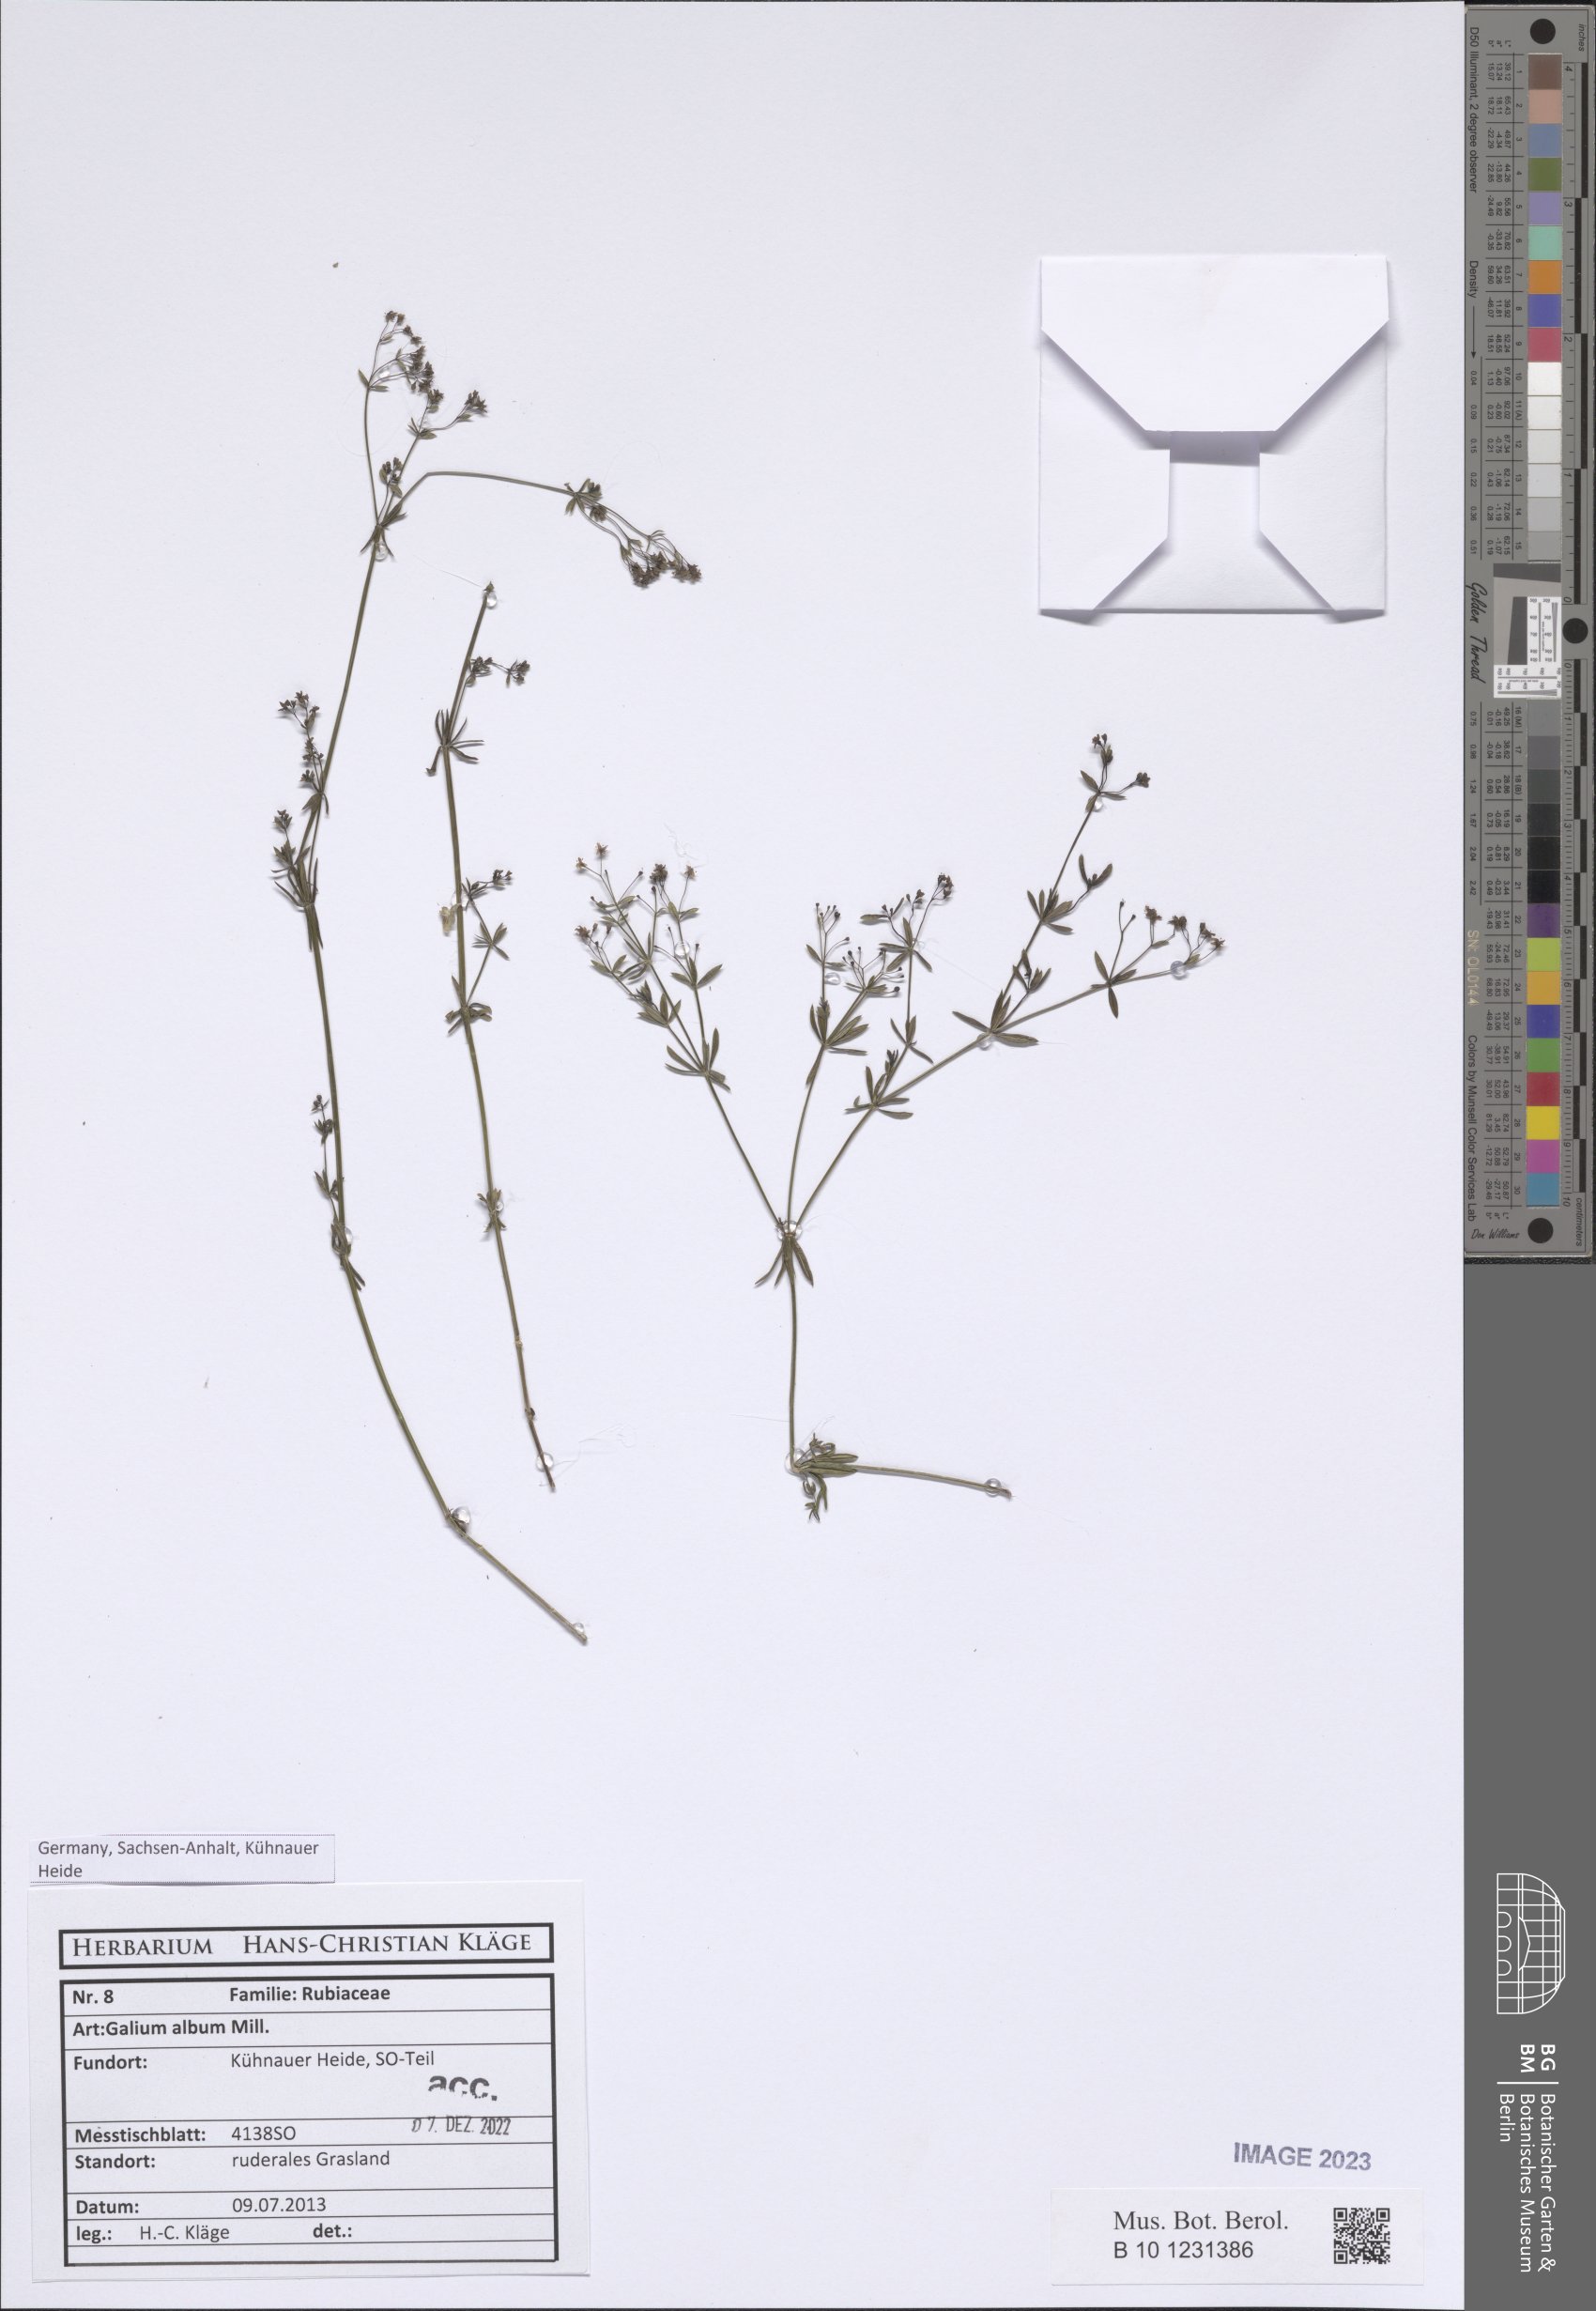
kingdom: Plantae
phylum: Tracheophyta
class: Magnoliopsida
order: Gentianales
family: Rubiaceae
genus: Galium
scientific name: Galium album
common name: White bedstraw
